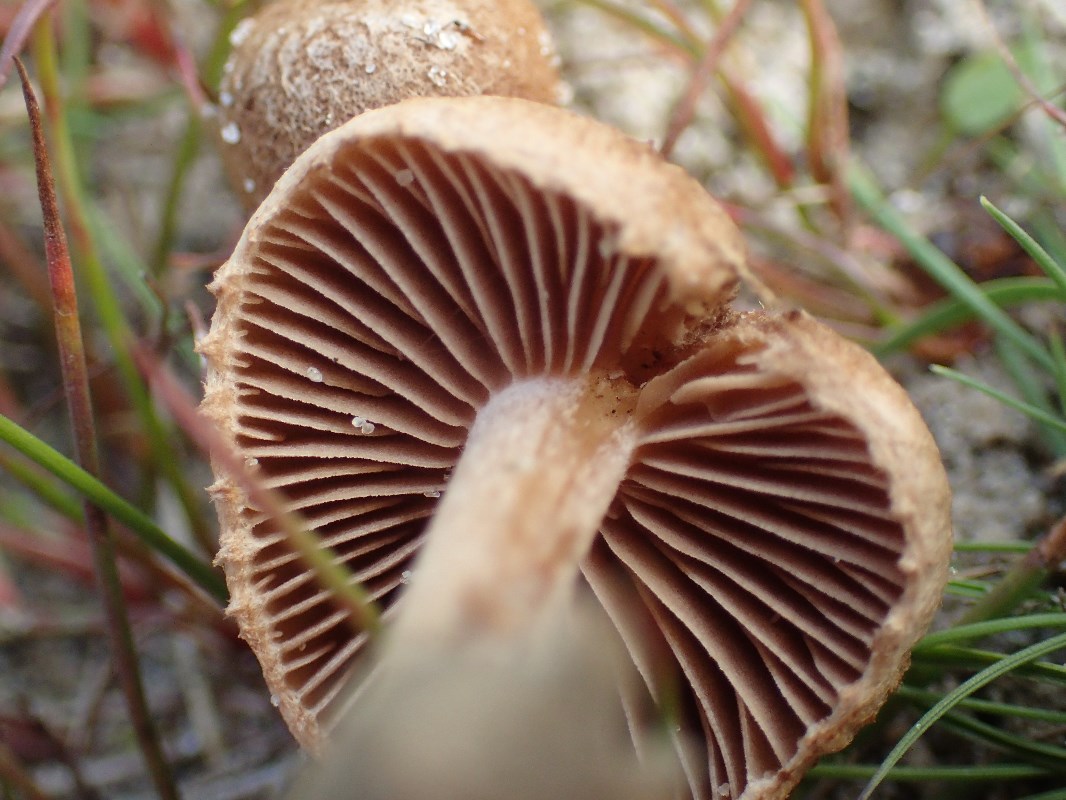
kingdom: Fungi
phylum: Basidiomycota
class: Agaricomycetes
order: Agaricales
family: Inocybaceae
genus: Inocybe
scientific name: Inocybe lacera
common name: laset trævlhat
